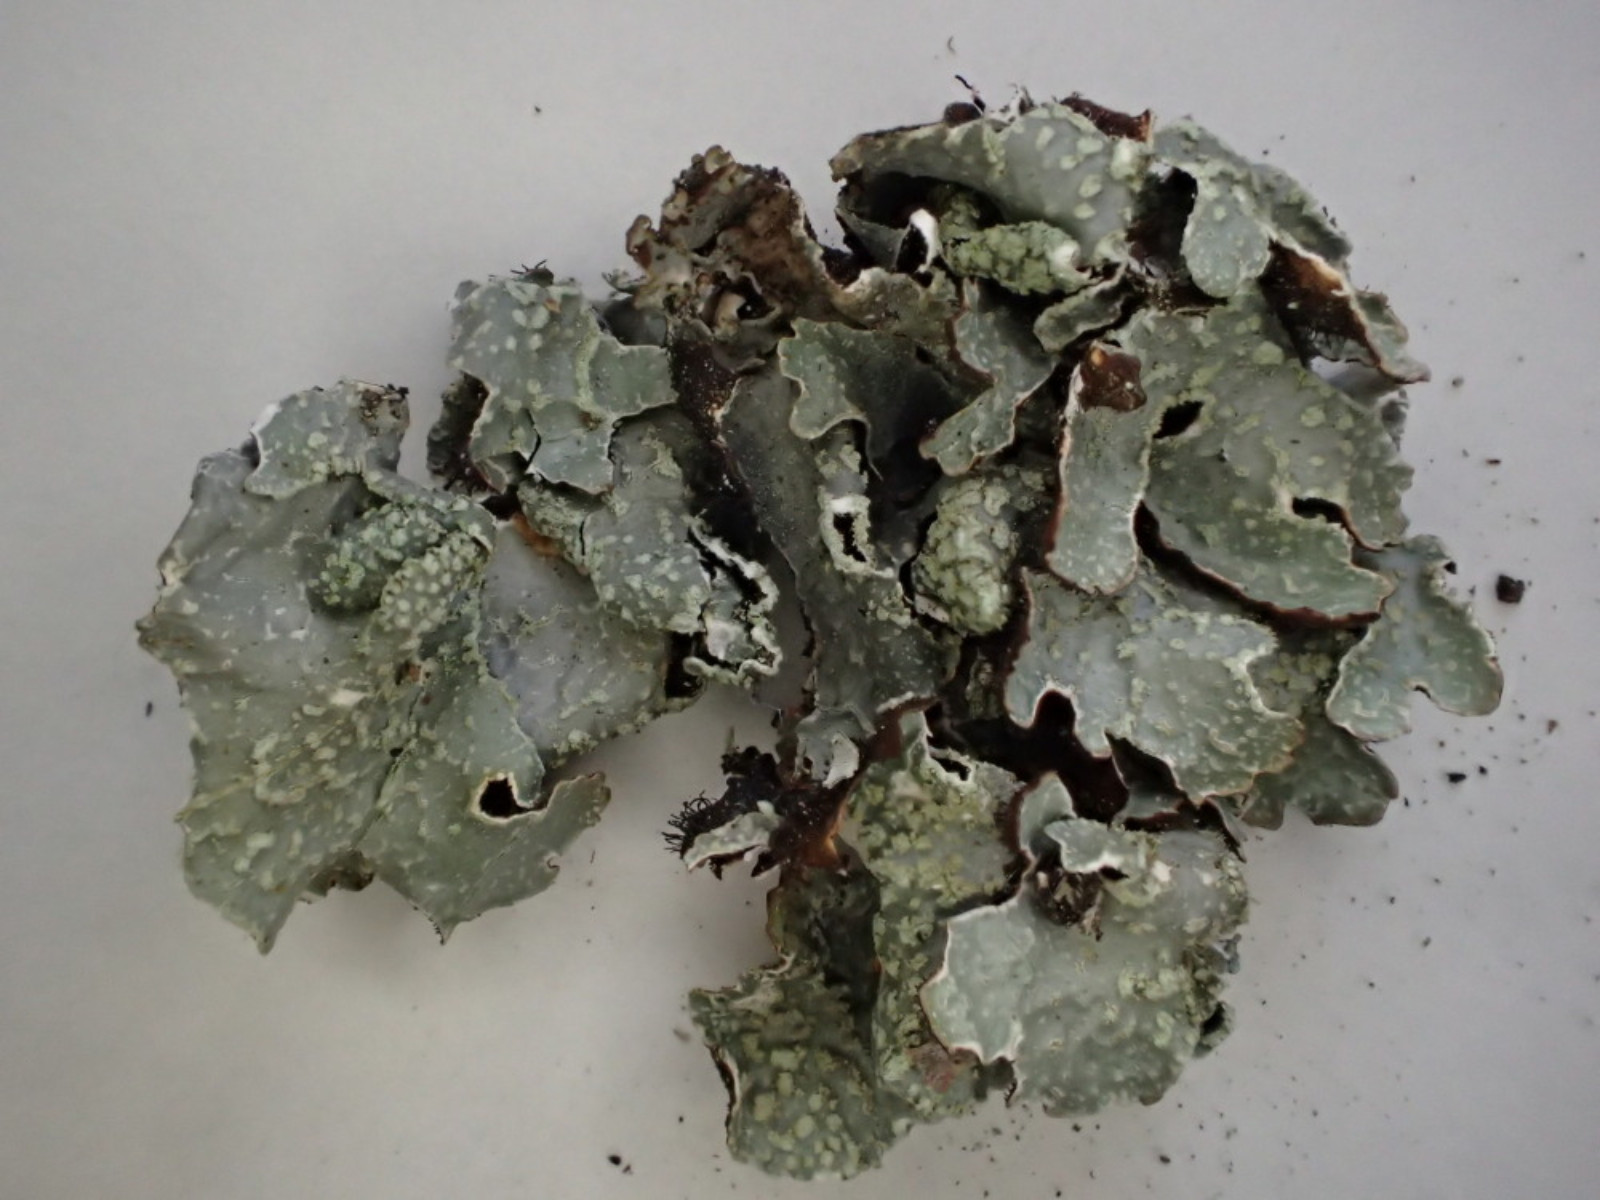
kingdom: Fungi
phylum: Ascomycota
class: Lecanoromycetes
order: Lecanorales
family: Parmeliaceae
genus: Parmelia
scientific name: Parmelia sulcata
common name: rynket skållav
